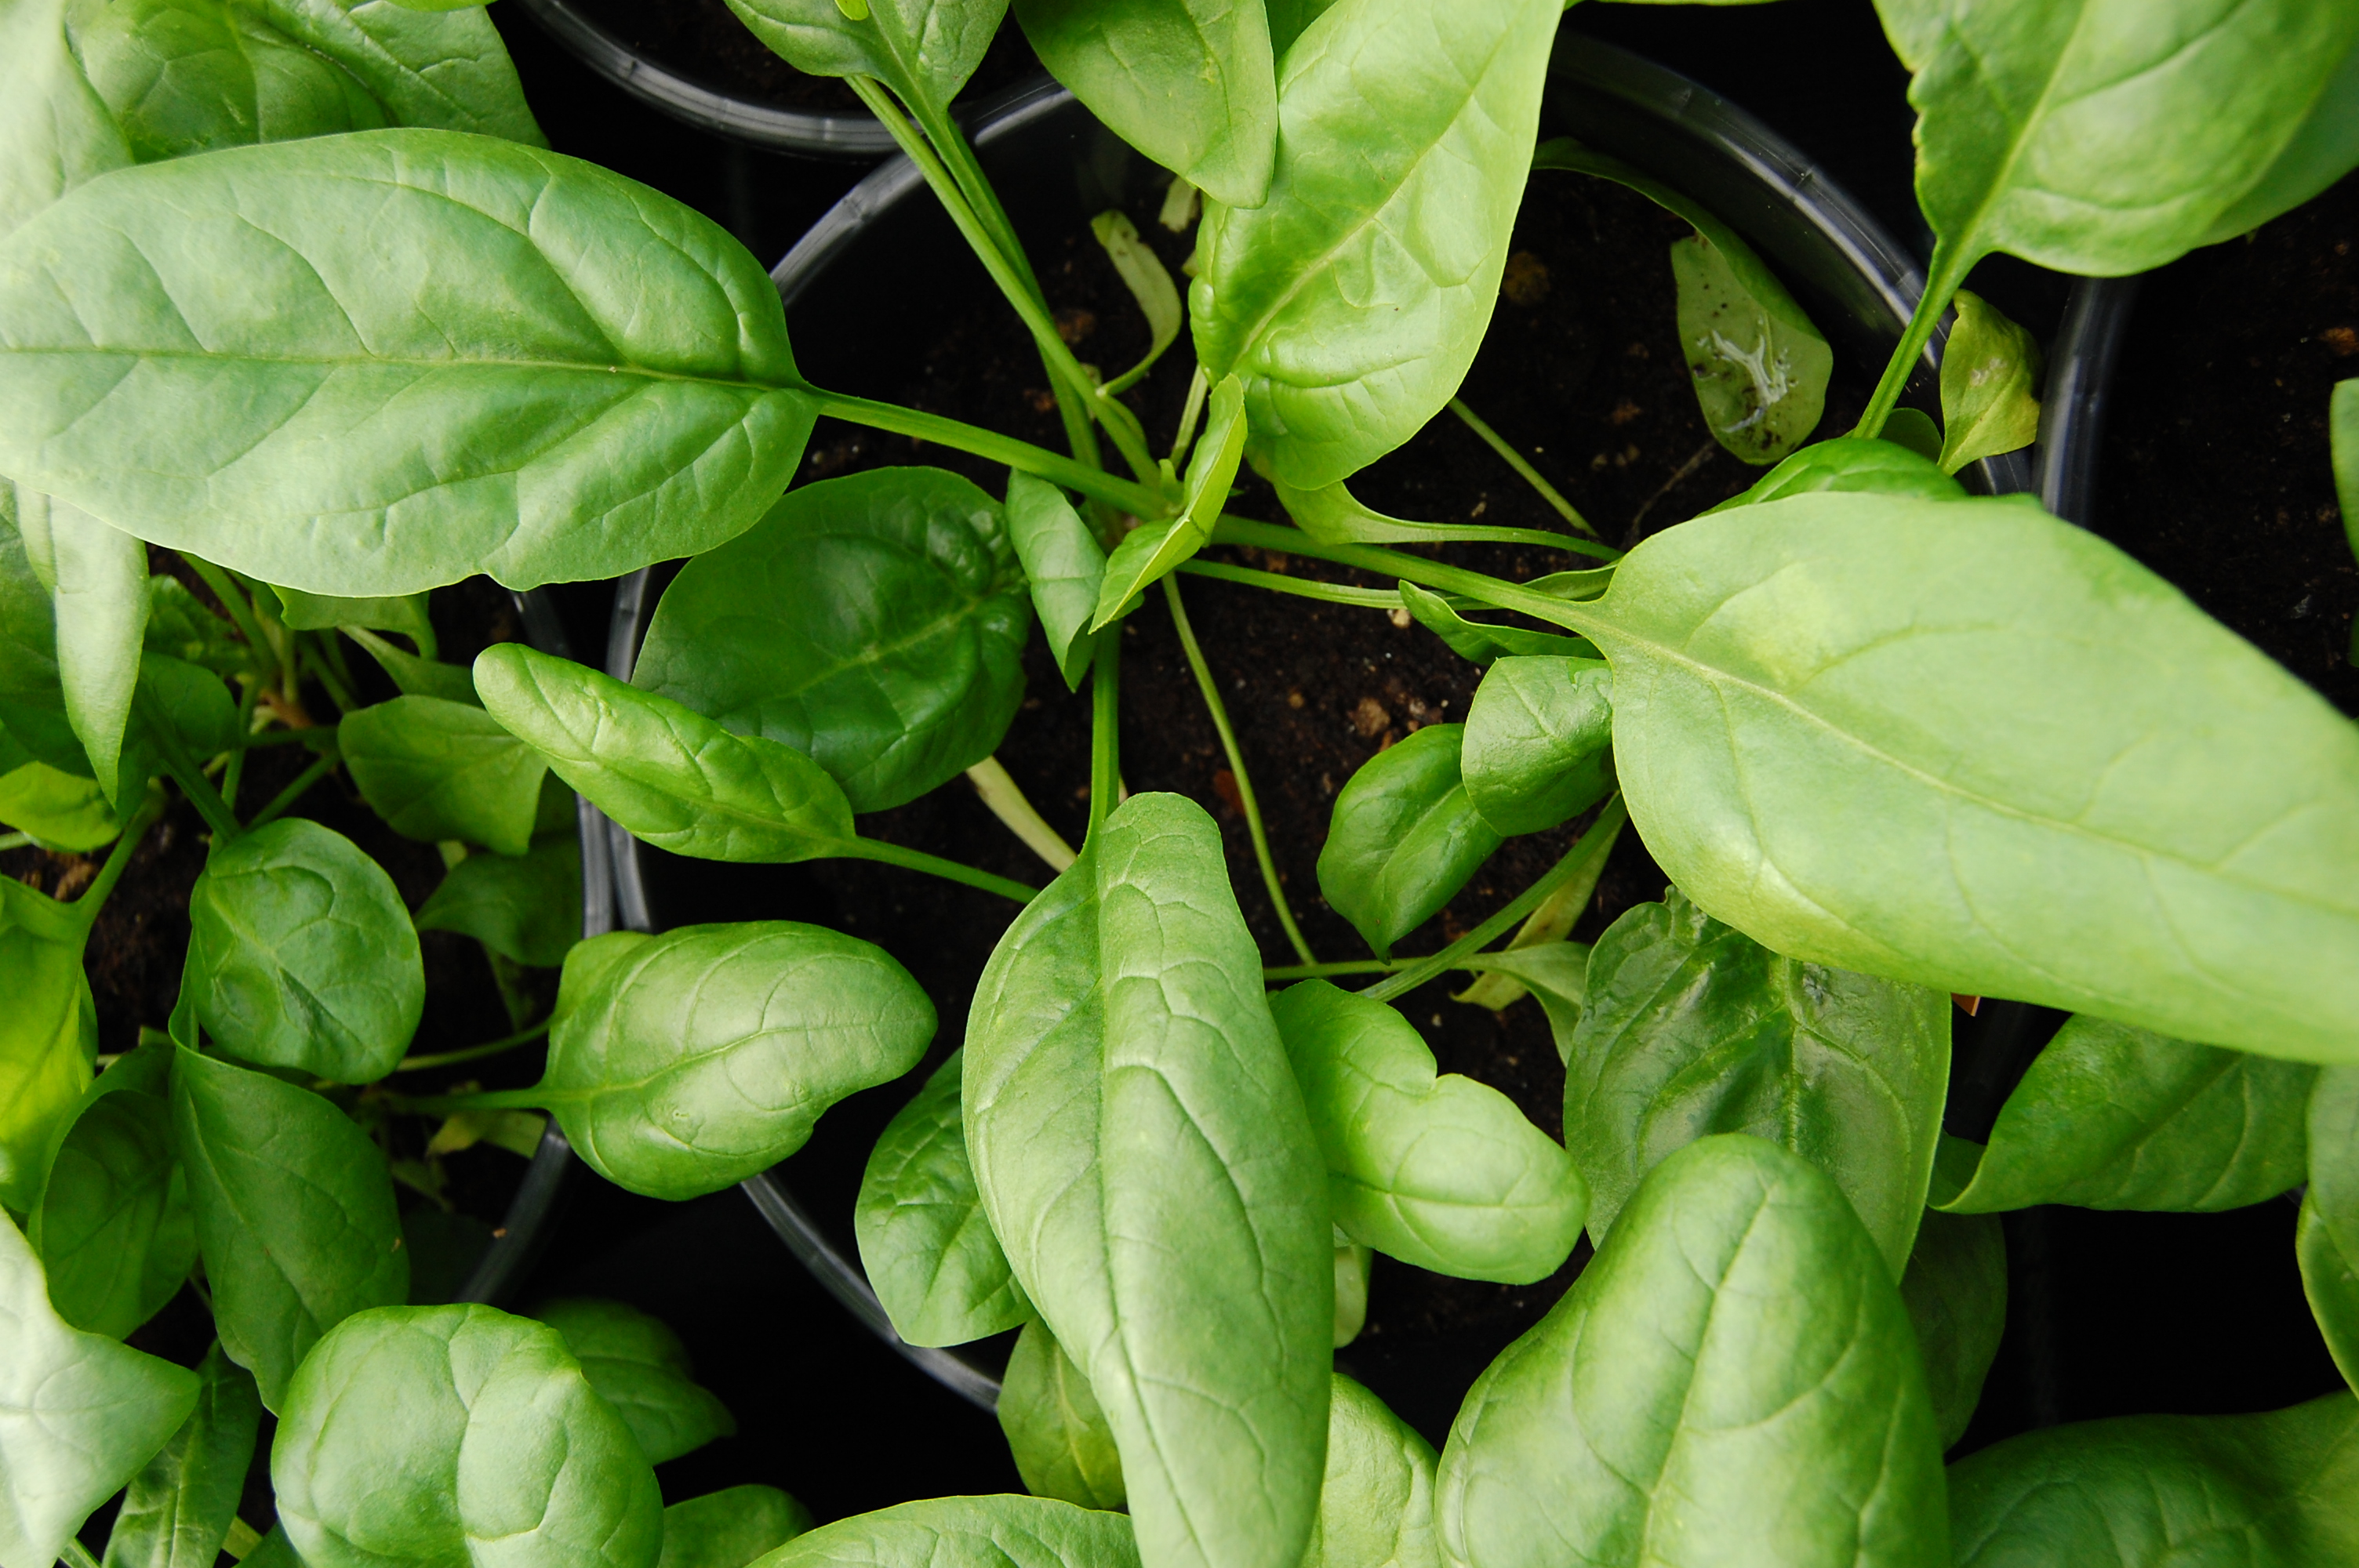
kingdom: Plantae
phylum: Tracheophyta
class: Magnoliopsida
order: Caryophyllales
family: Amaranthaceae
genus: Spinacia
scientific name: Spinacia oleracea
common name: Spinach
